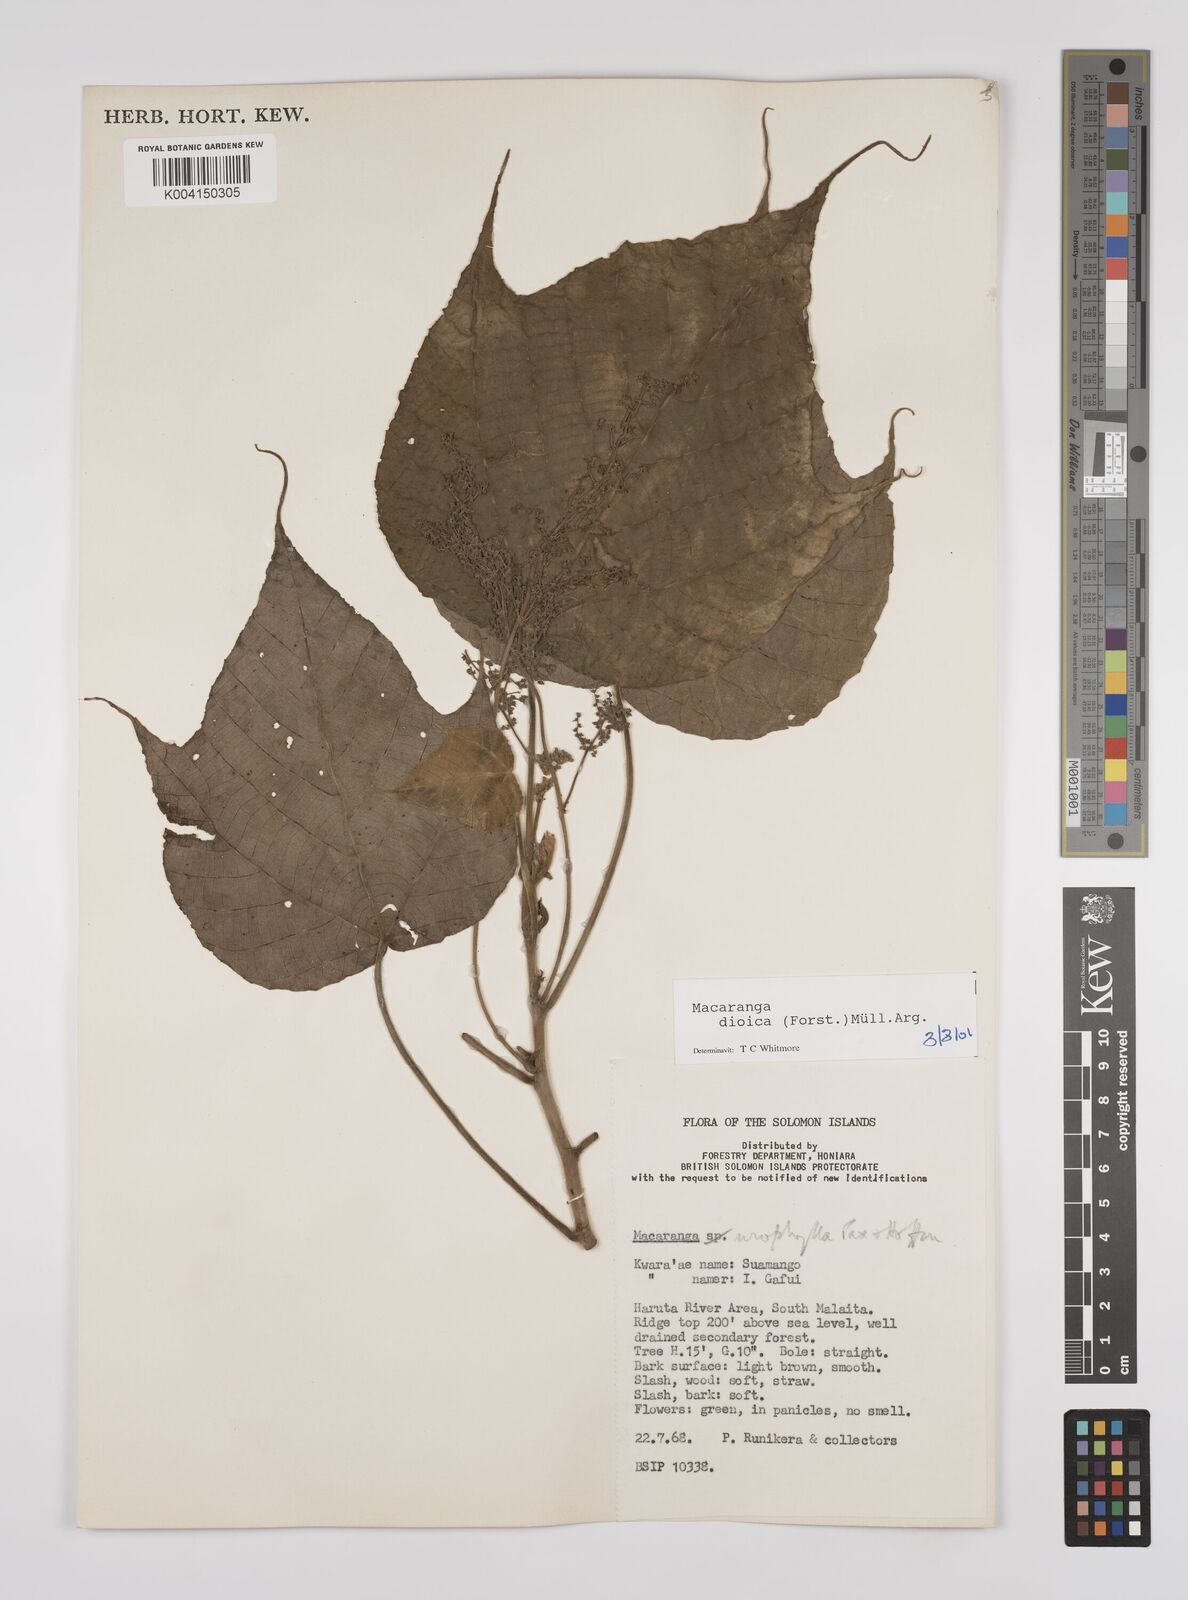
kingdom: Plantae
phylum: Tracheophyta
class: Magnoliopsida
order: Malpighiales
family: Euphorbiaceae
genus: Macaranga
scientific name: Macaranga dioica
